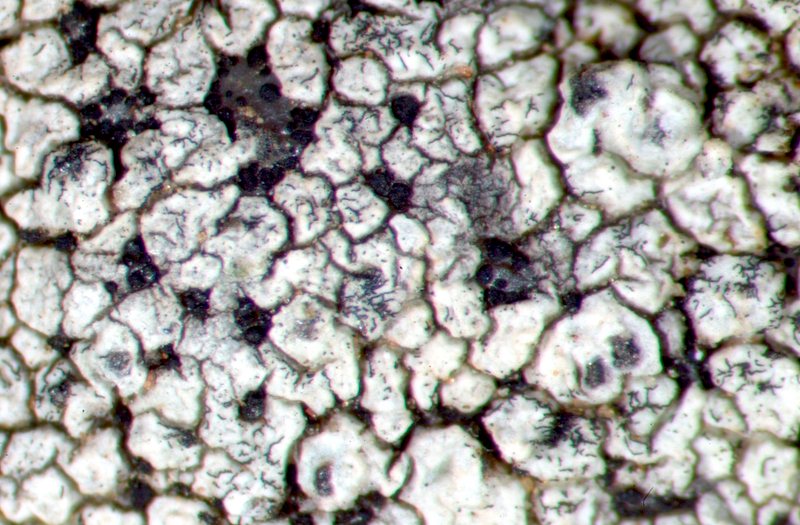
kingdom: Fungi
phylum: Ascomycota
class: Lecanoromycetes
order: Lecideales
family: Lecideaceae
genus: Lecidea
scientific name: Lecidea
